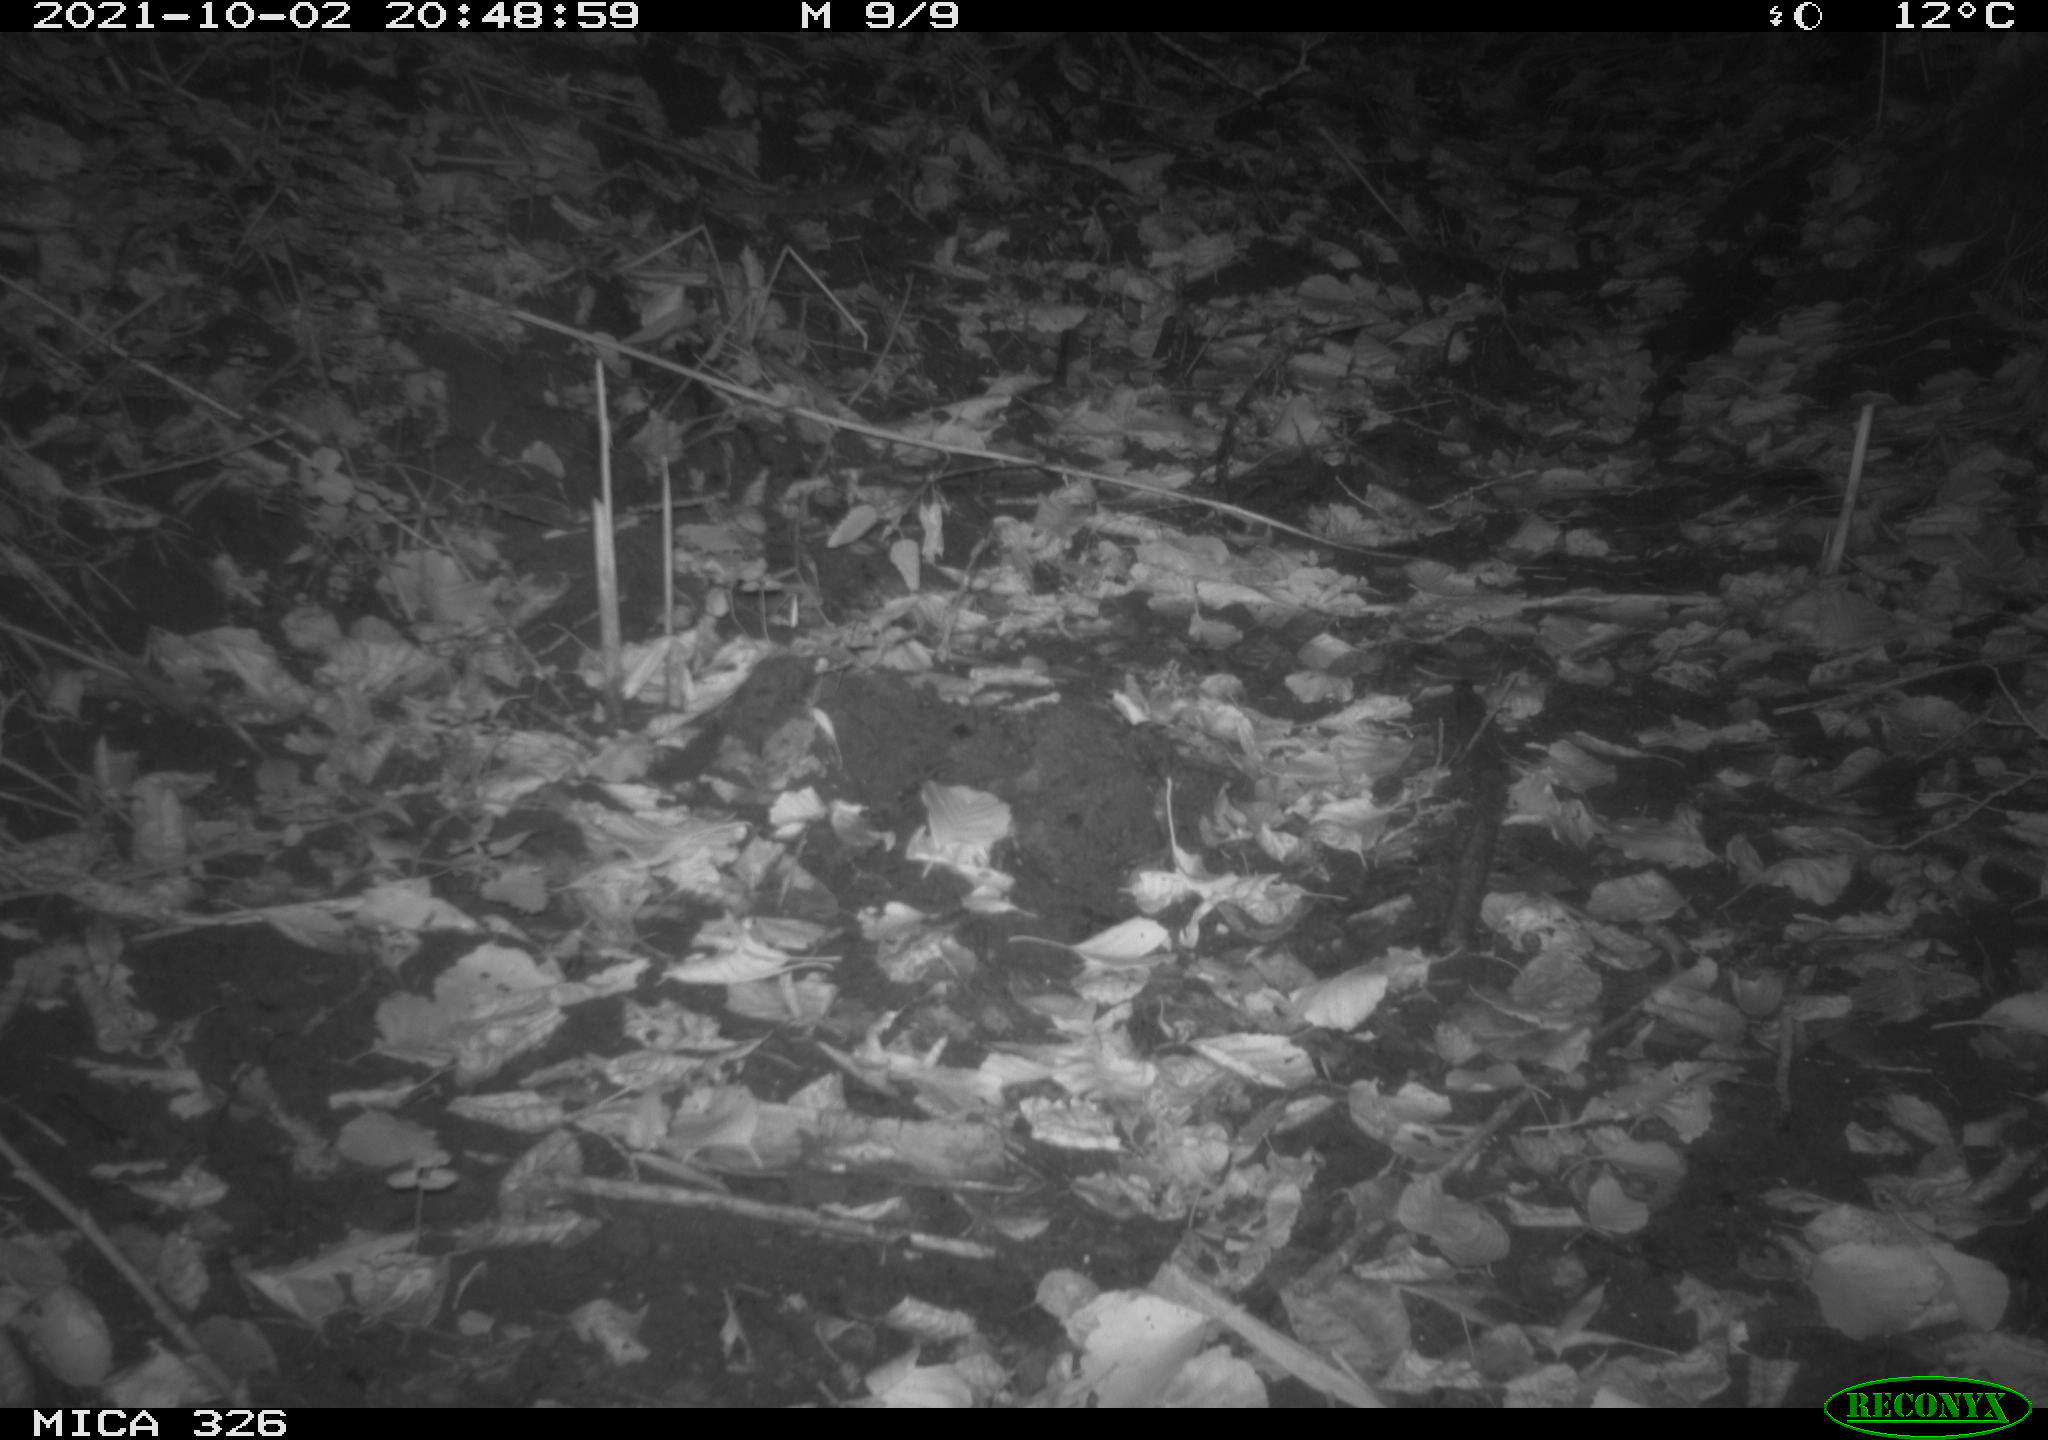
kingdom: Animalia
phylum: Chordata
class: Mammalia
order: Rodentia
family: Muridae
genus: Rattus
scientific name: Rattus norvegicus
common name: Brown rat
